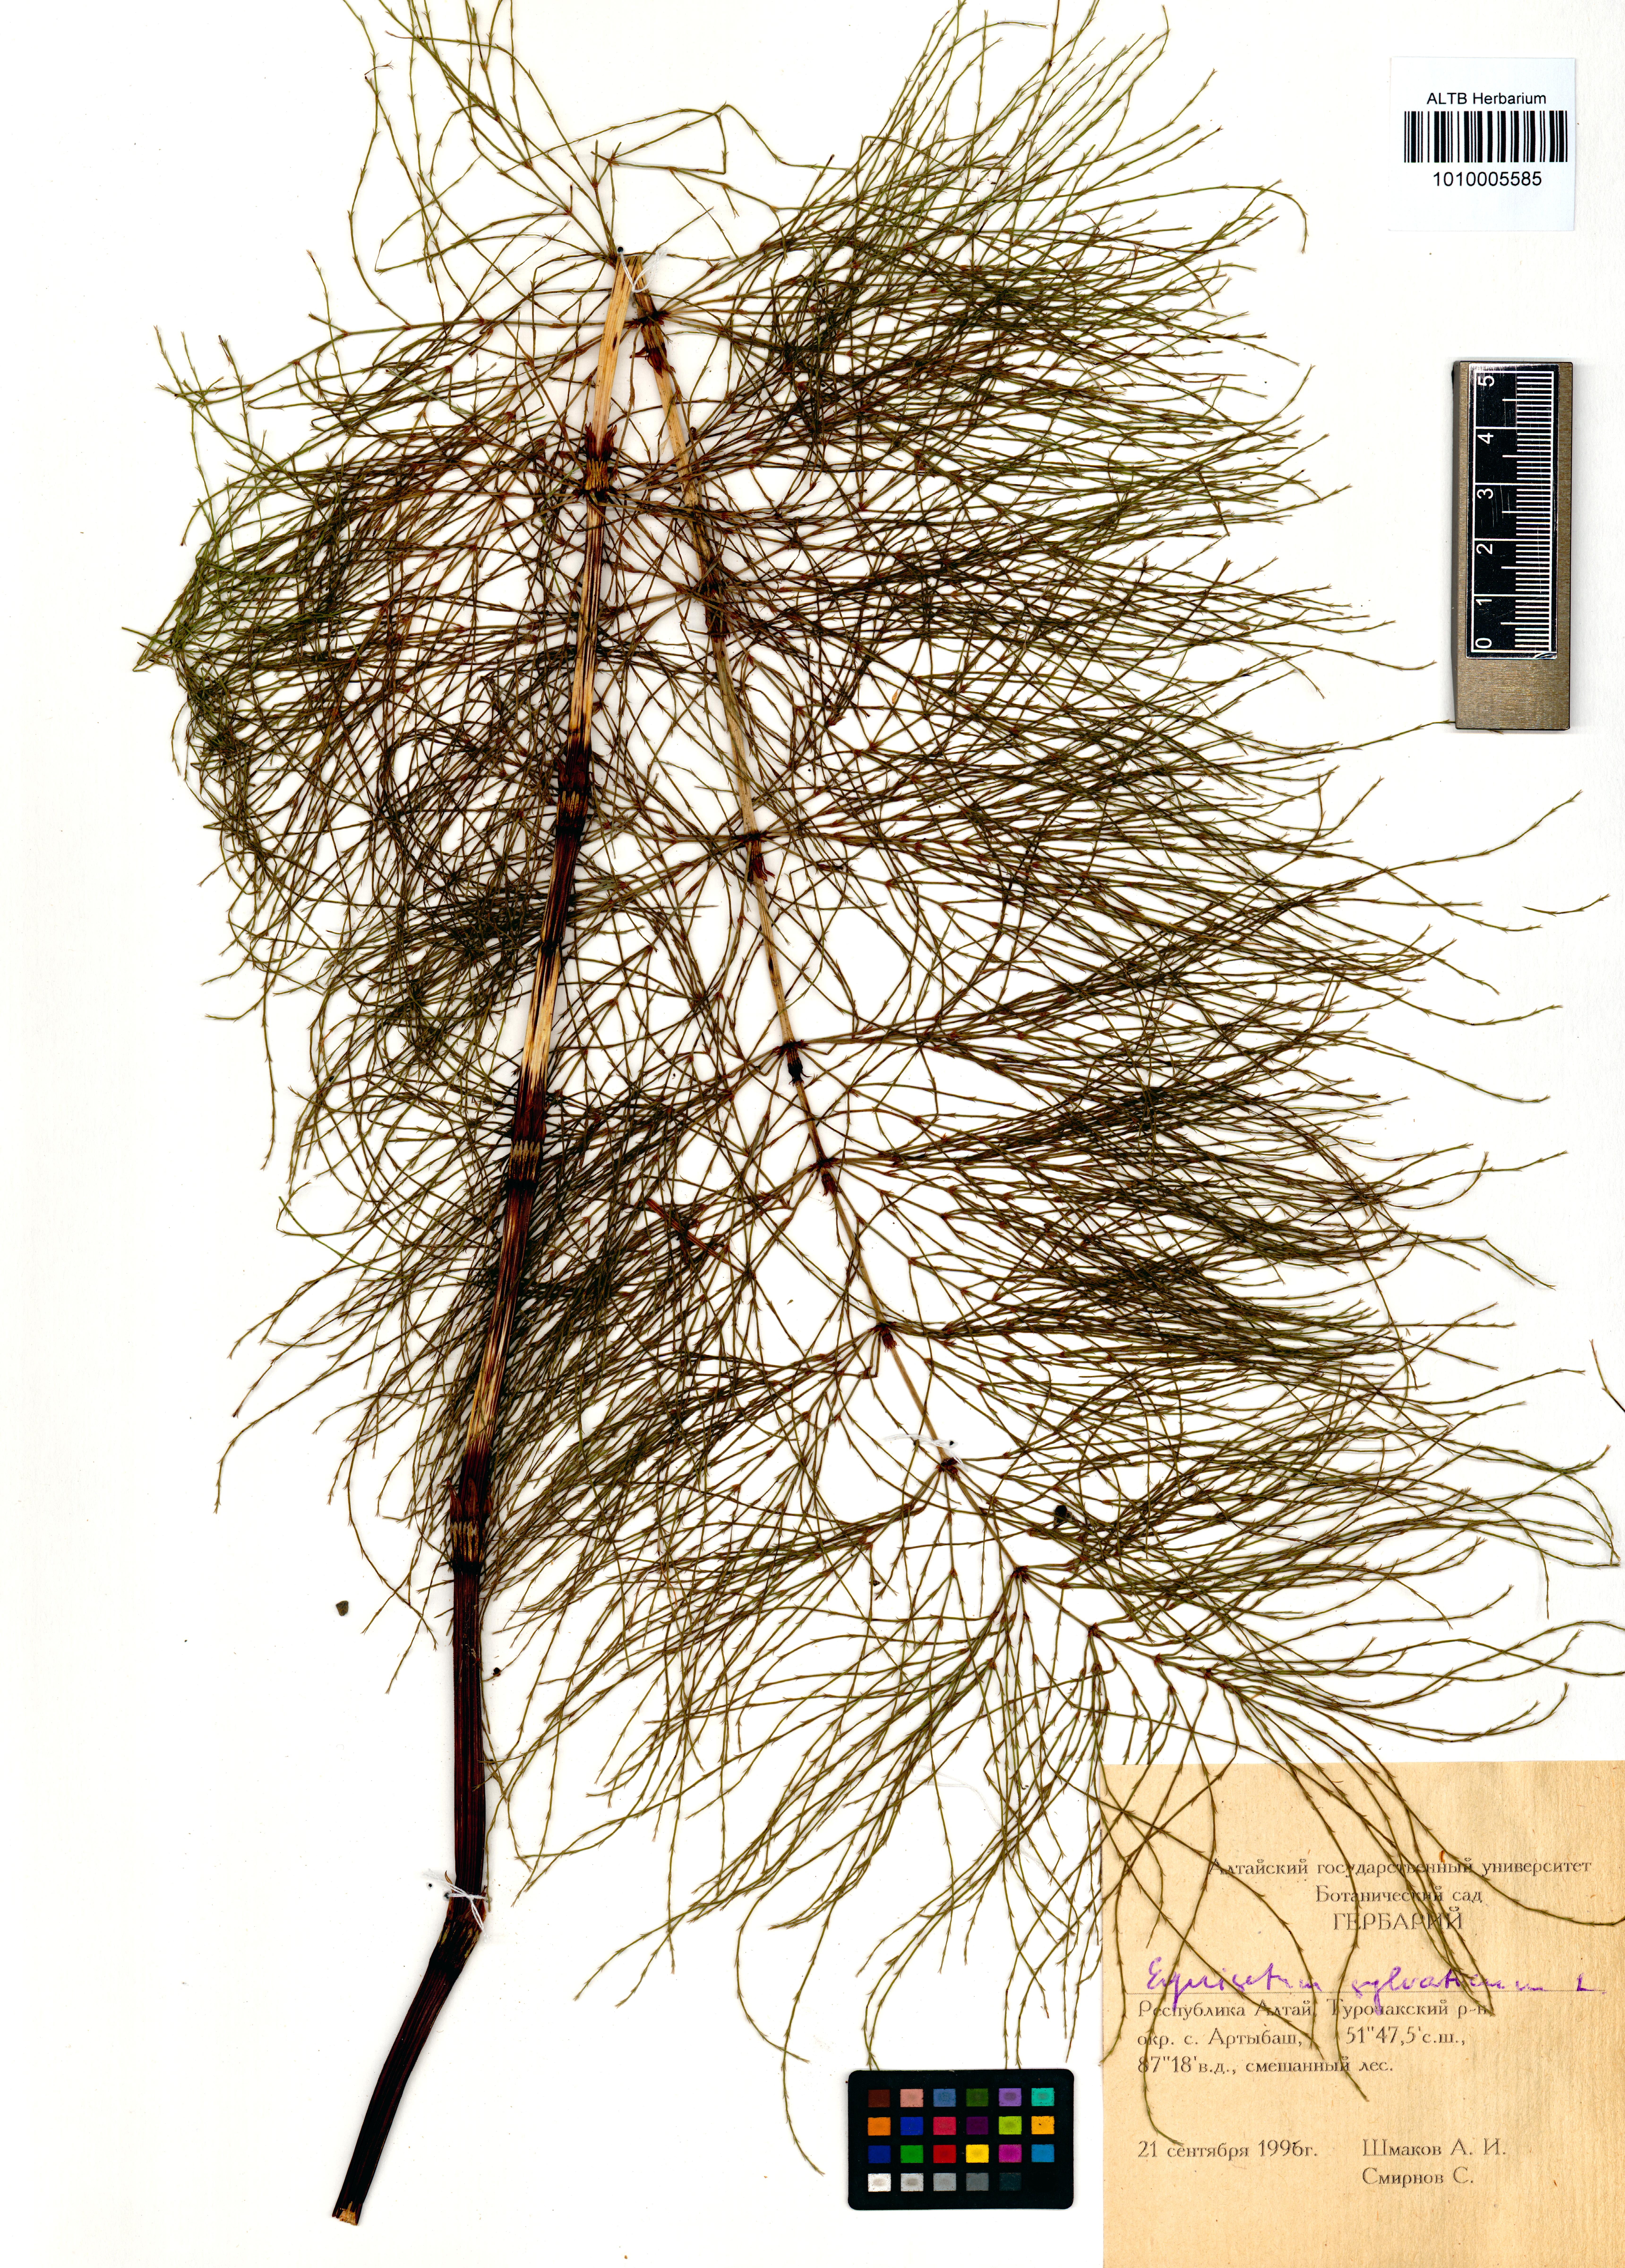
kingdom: Plantae
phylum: Tracheophyta
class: Polypodiopsida
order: Equisetales
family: Equisetaceae
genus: Equisetum
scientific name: Equisetum sylvaticum
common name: Wood horsetail
